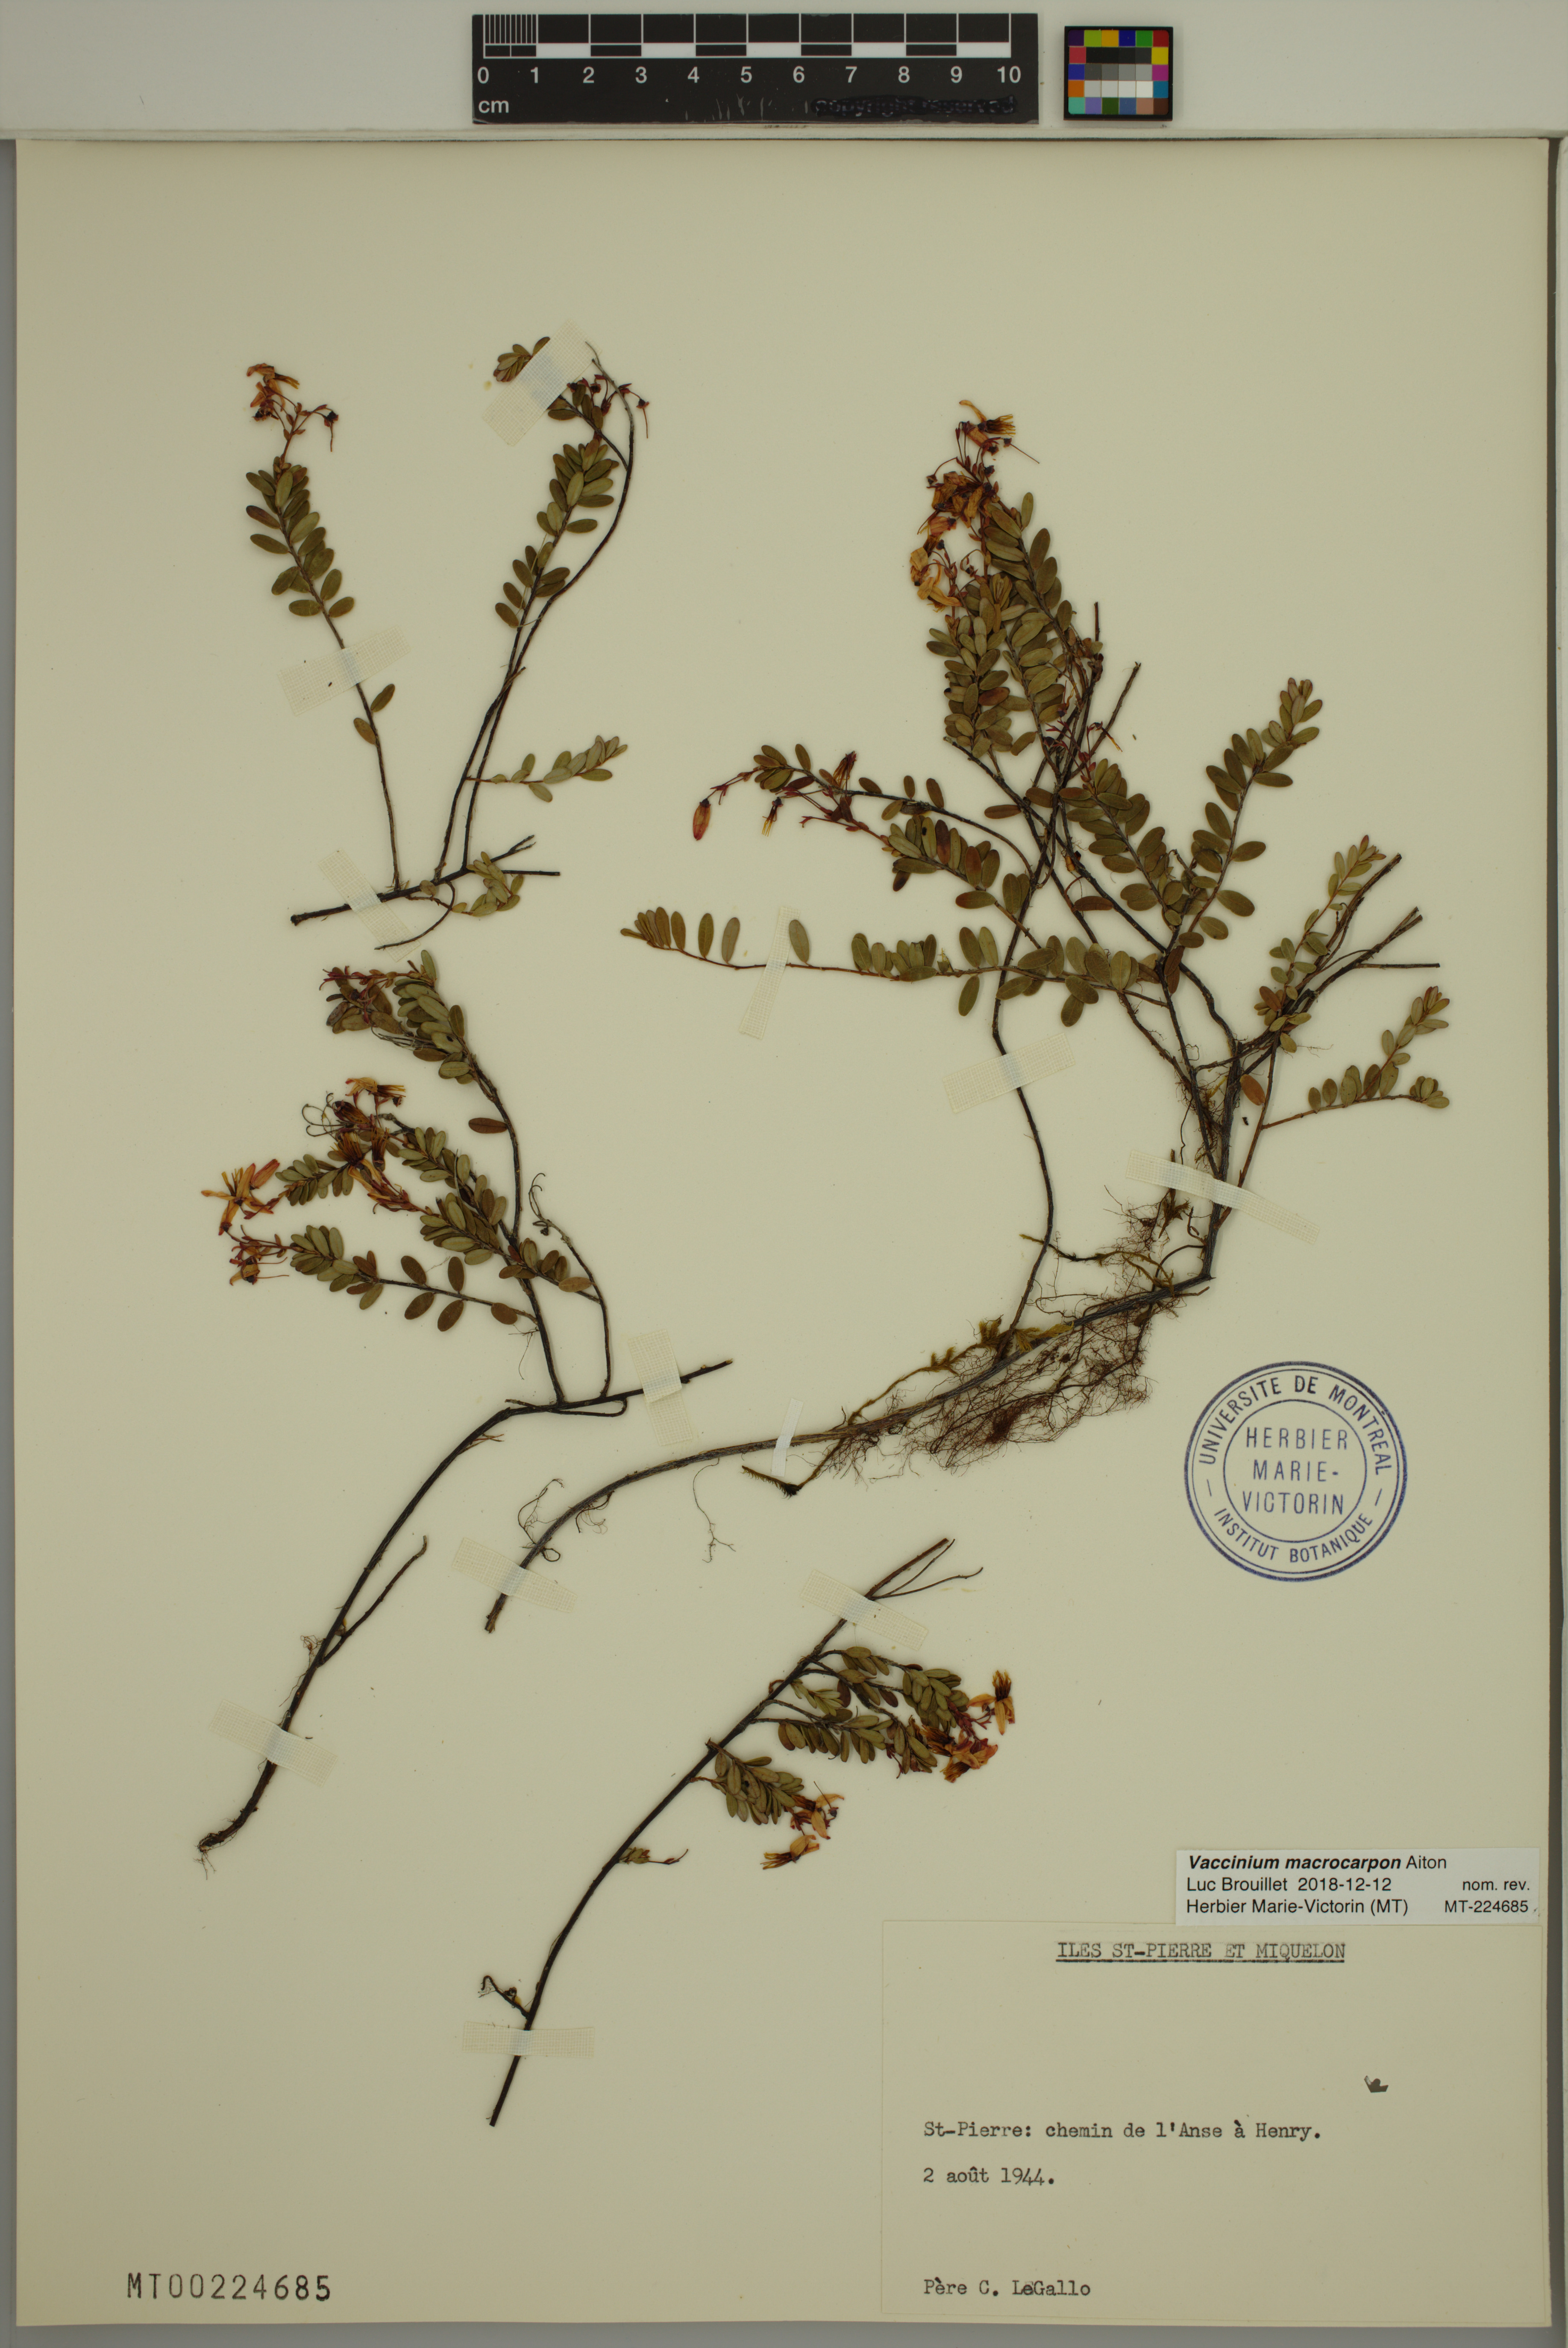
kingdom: Plantae
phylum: Tracheophyta
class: Magnoliopsida
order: Ericales
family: Ericaceae
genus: Vaccinium
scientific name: Vaccinium macrocarpon
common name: American cranberry
